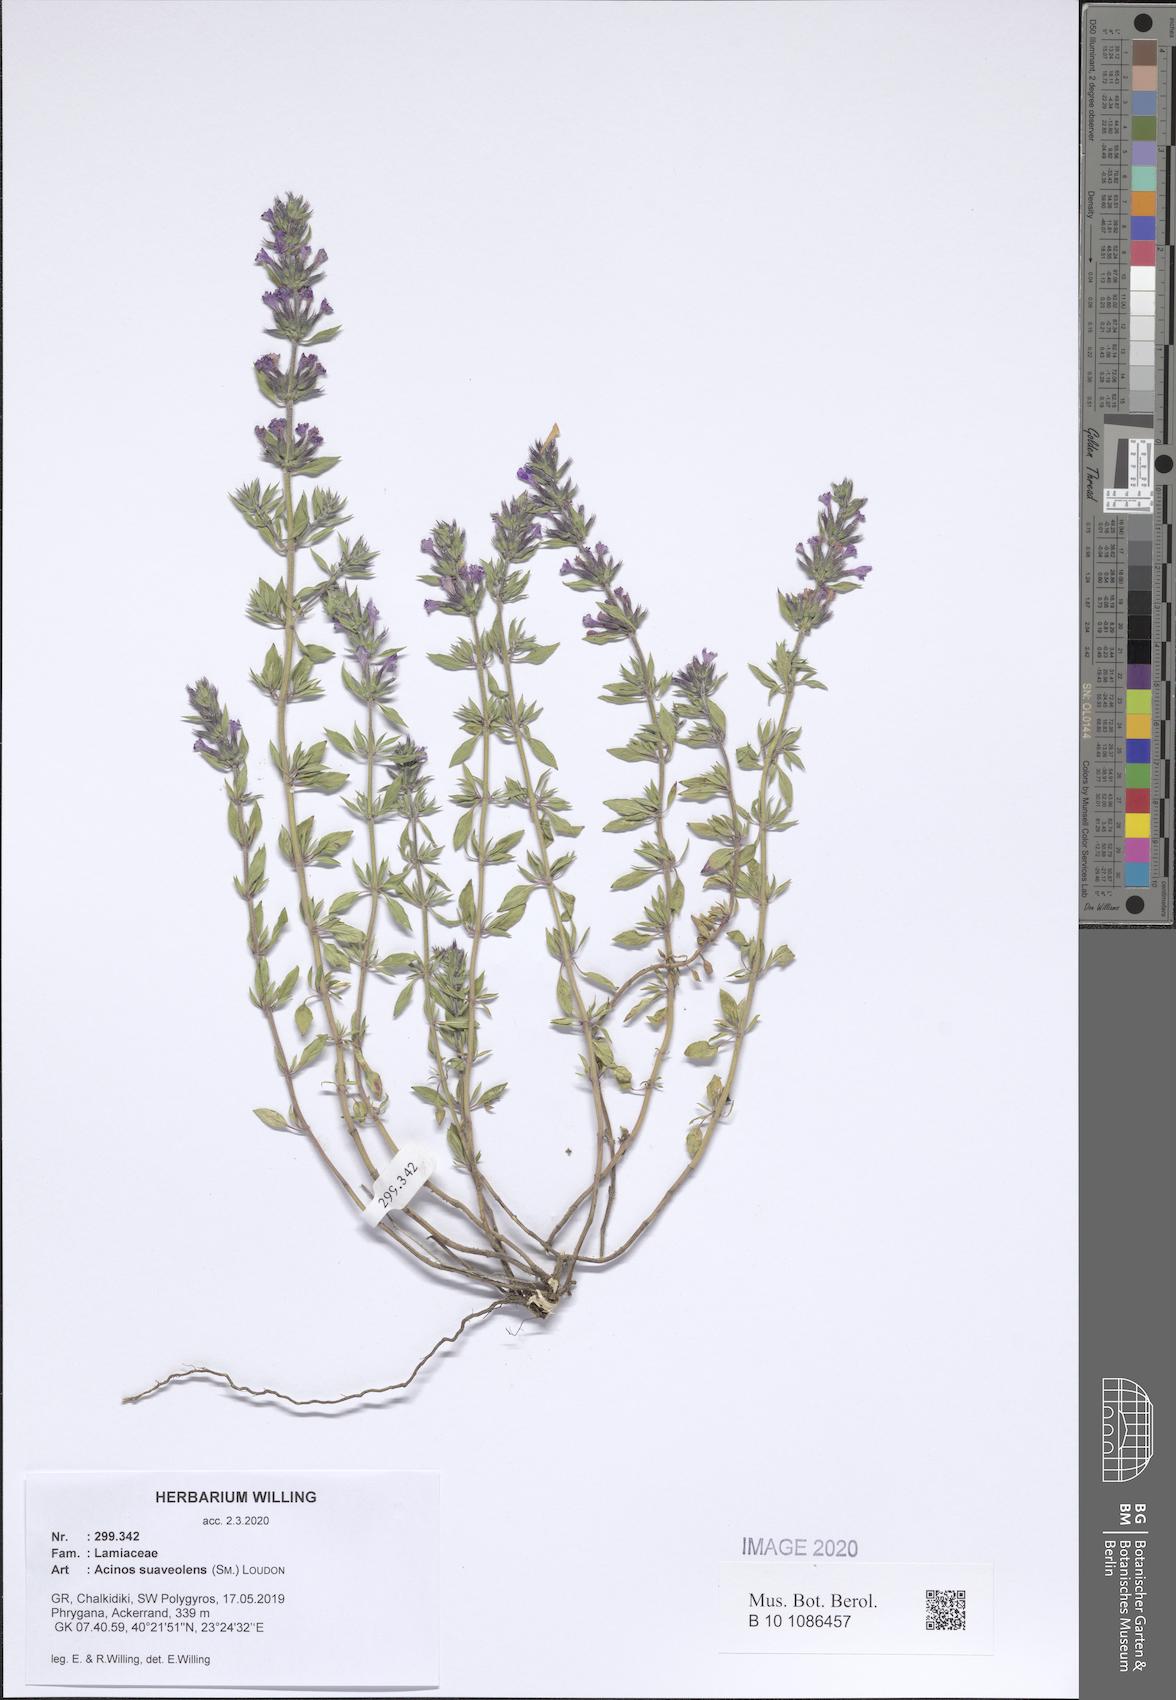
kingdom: Plantae
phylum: Tracheophyta
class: Magnoliopsida
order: Lamiales
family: Lamiaceae
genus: Clinopodium
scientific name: Clinopodium suaveolens
